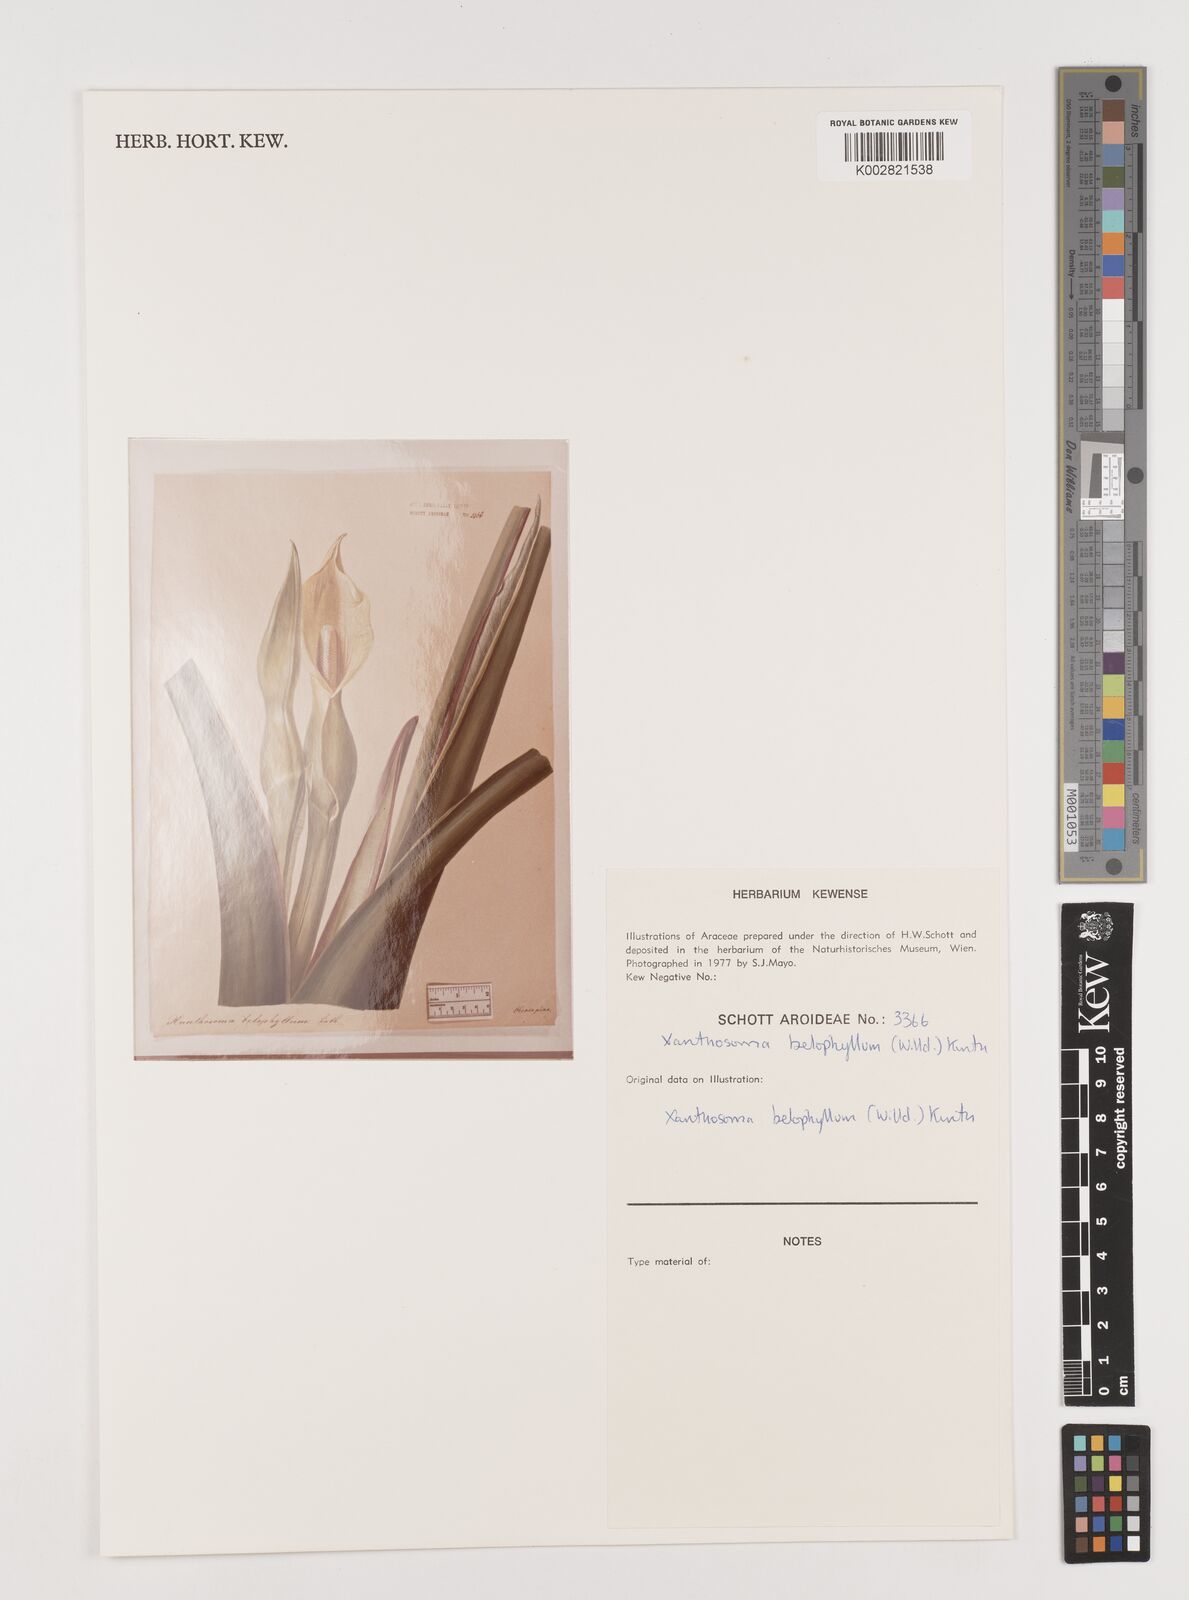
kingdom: Plantae
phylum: Tracheophyta
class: Liliopsida
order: Alismatales
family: Araceae
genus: Xanthosoma
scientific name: Xanthosoma belophyllum
